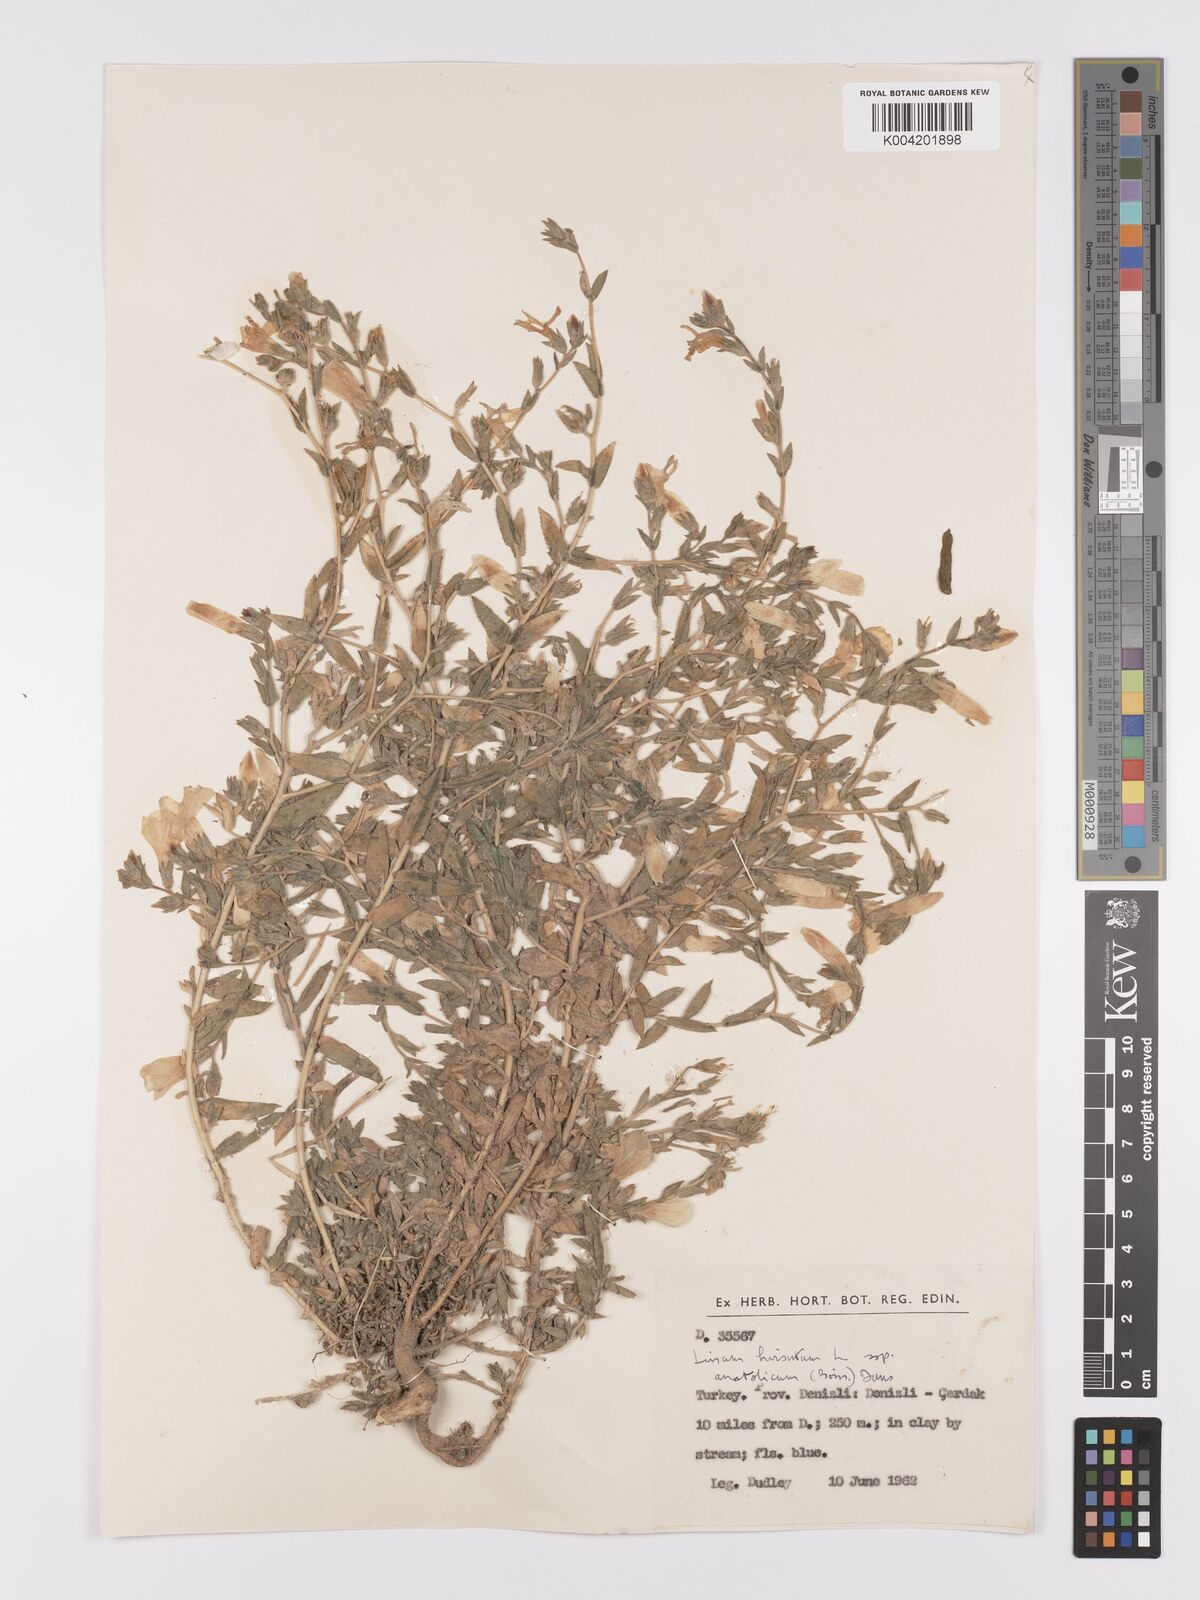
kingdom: Plantae
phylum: Tracheophyta
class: Magnoliopsida
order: Malpighiales
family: Linaceae
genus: Linum
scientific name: Linum
